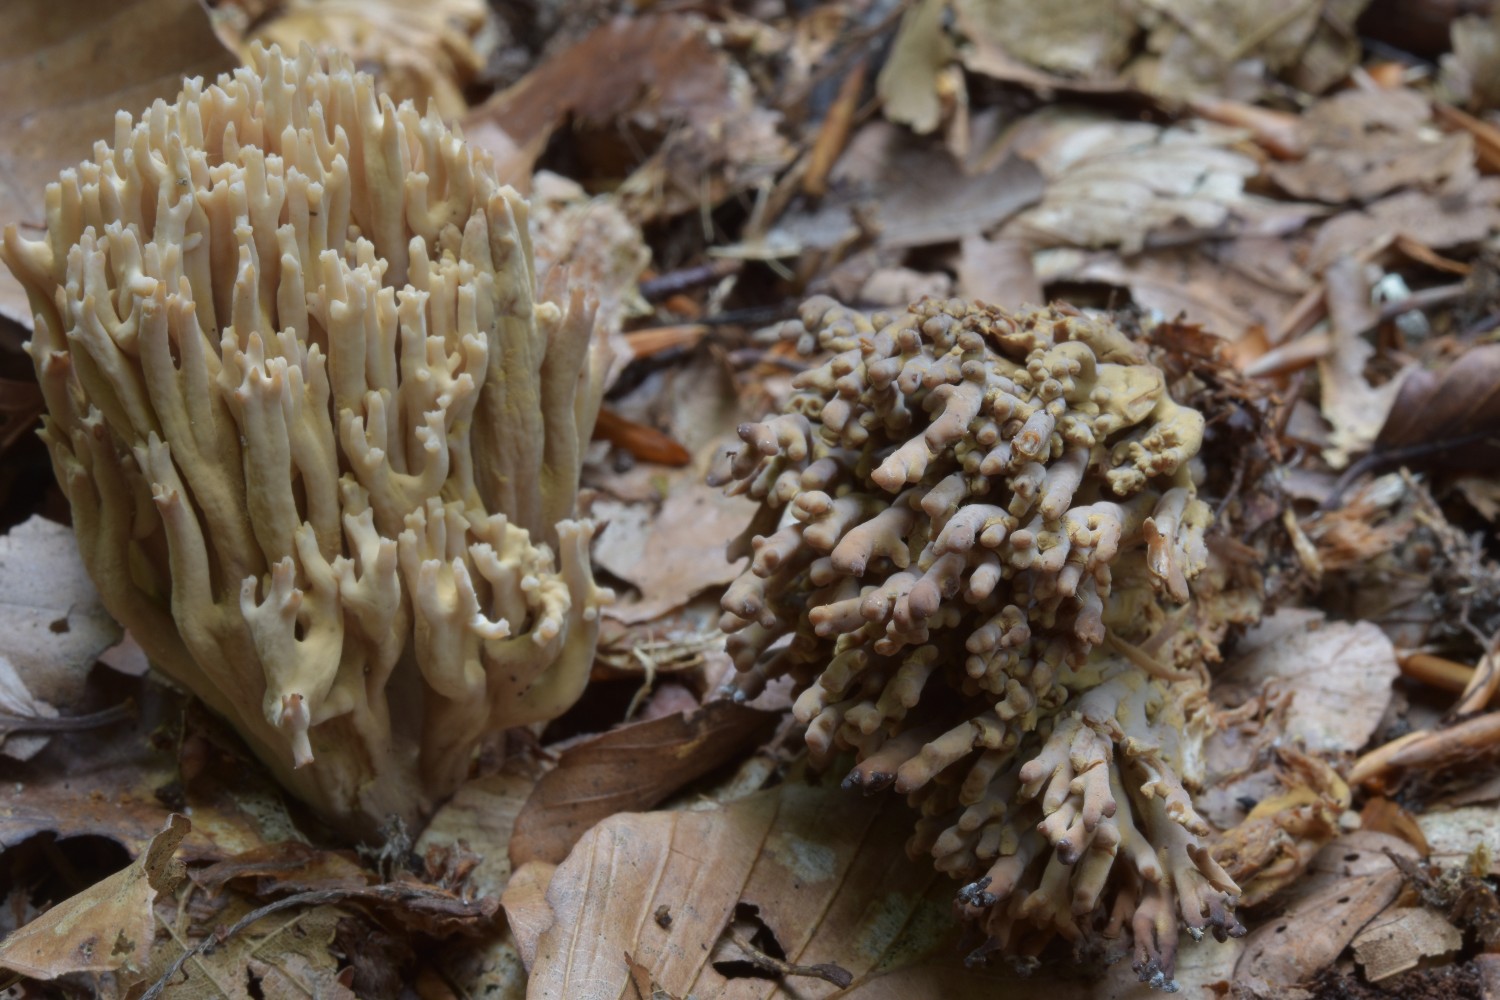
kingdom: Fungi
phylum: Basidiomycota
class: Agaricomycetes
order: Gomphales
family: Gomphaceae
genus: Ramaria
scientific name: Ramaria
